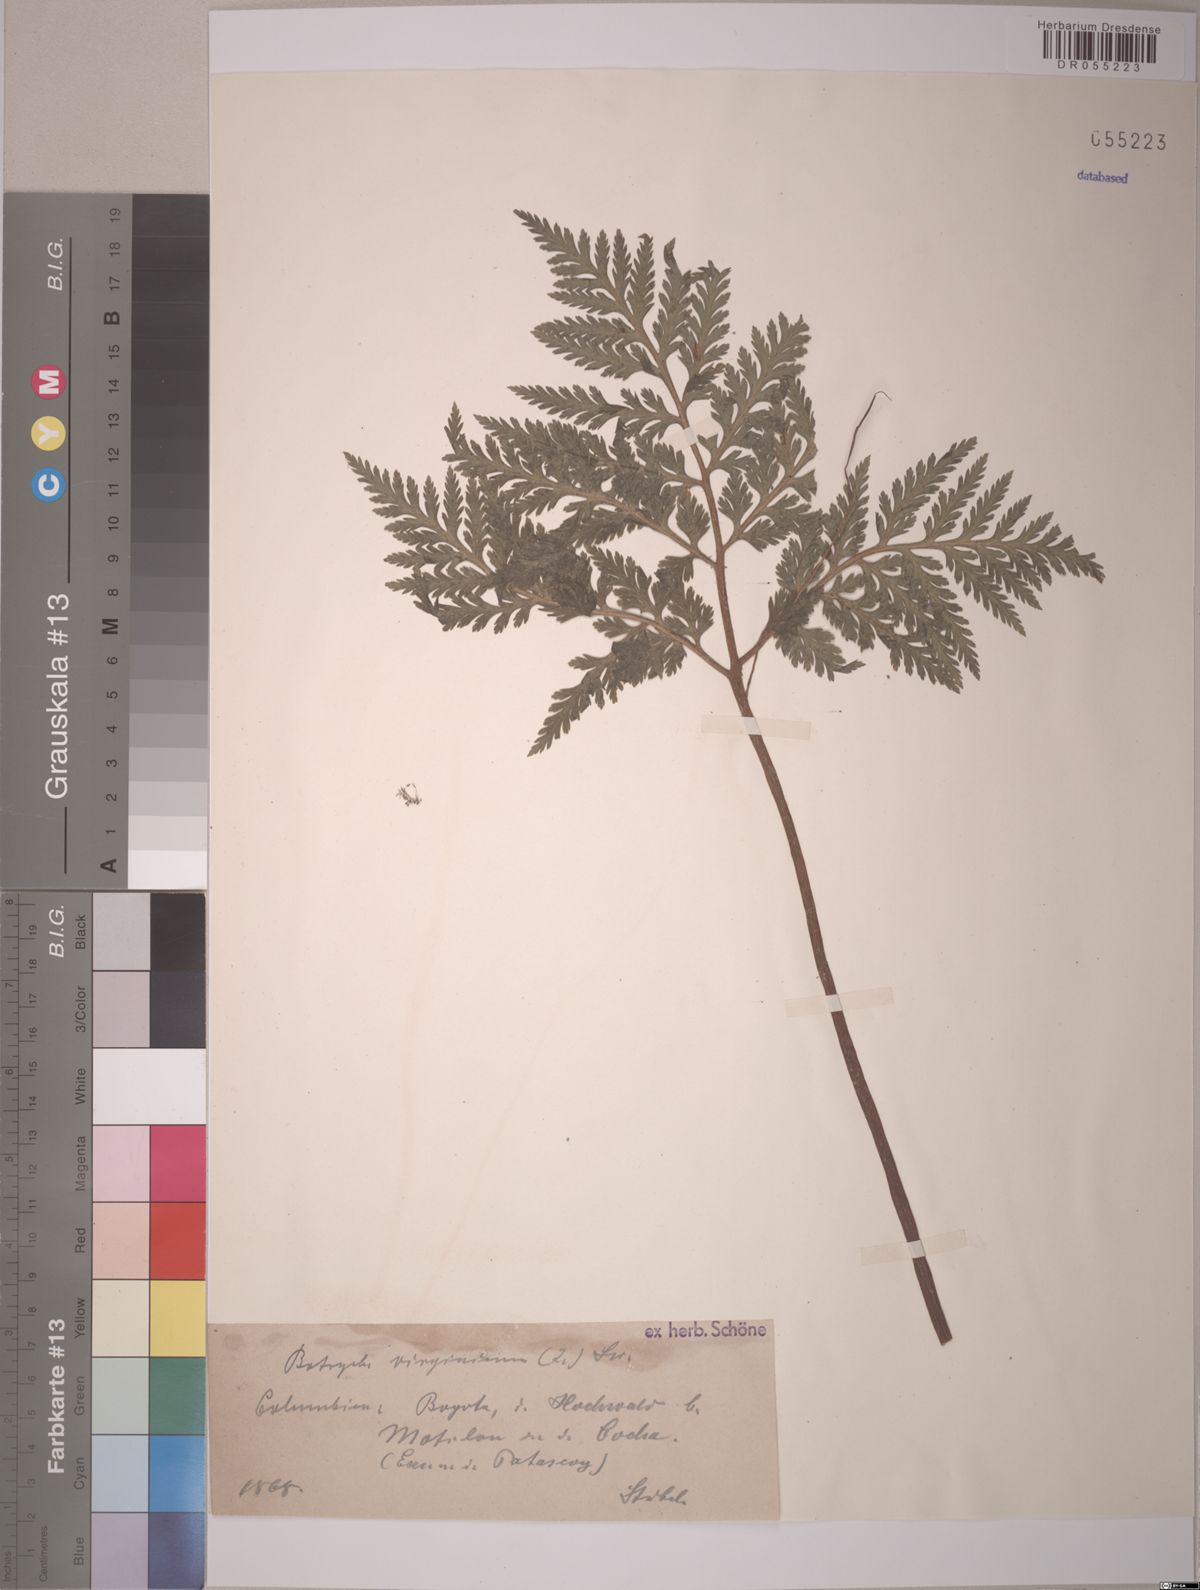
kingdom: Plantae
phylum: Tracheophyta
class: Polypodiopsida
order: Ophioglossales
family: Ophioglossaceae
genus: Botrypus
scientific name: Botrypus virginianus
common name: Common grapefern
